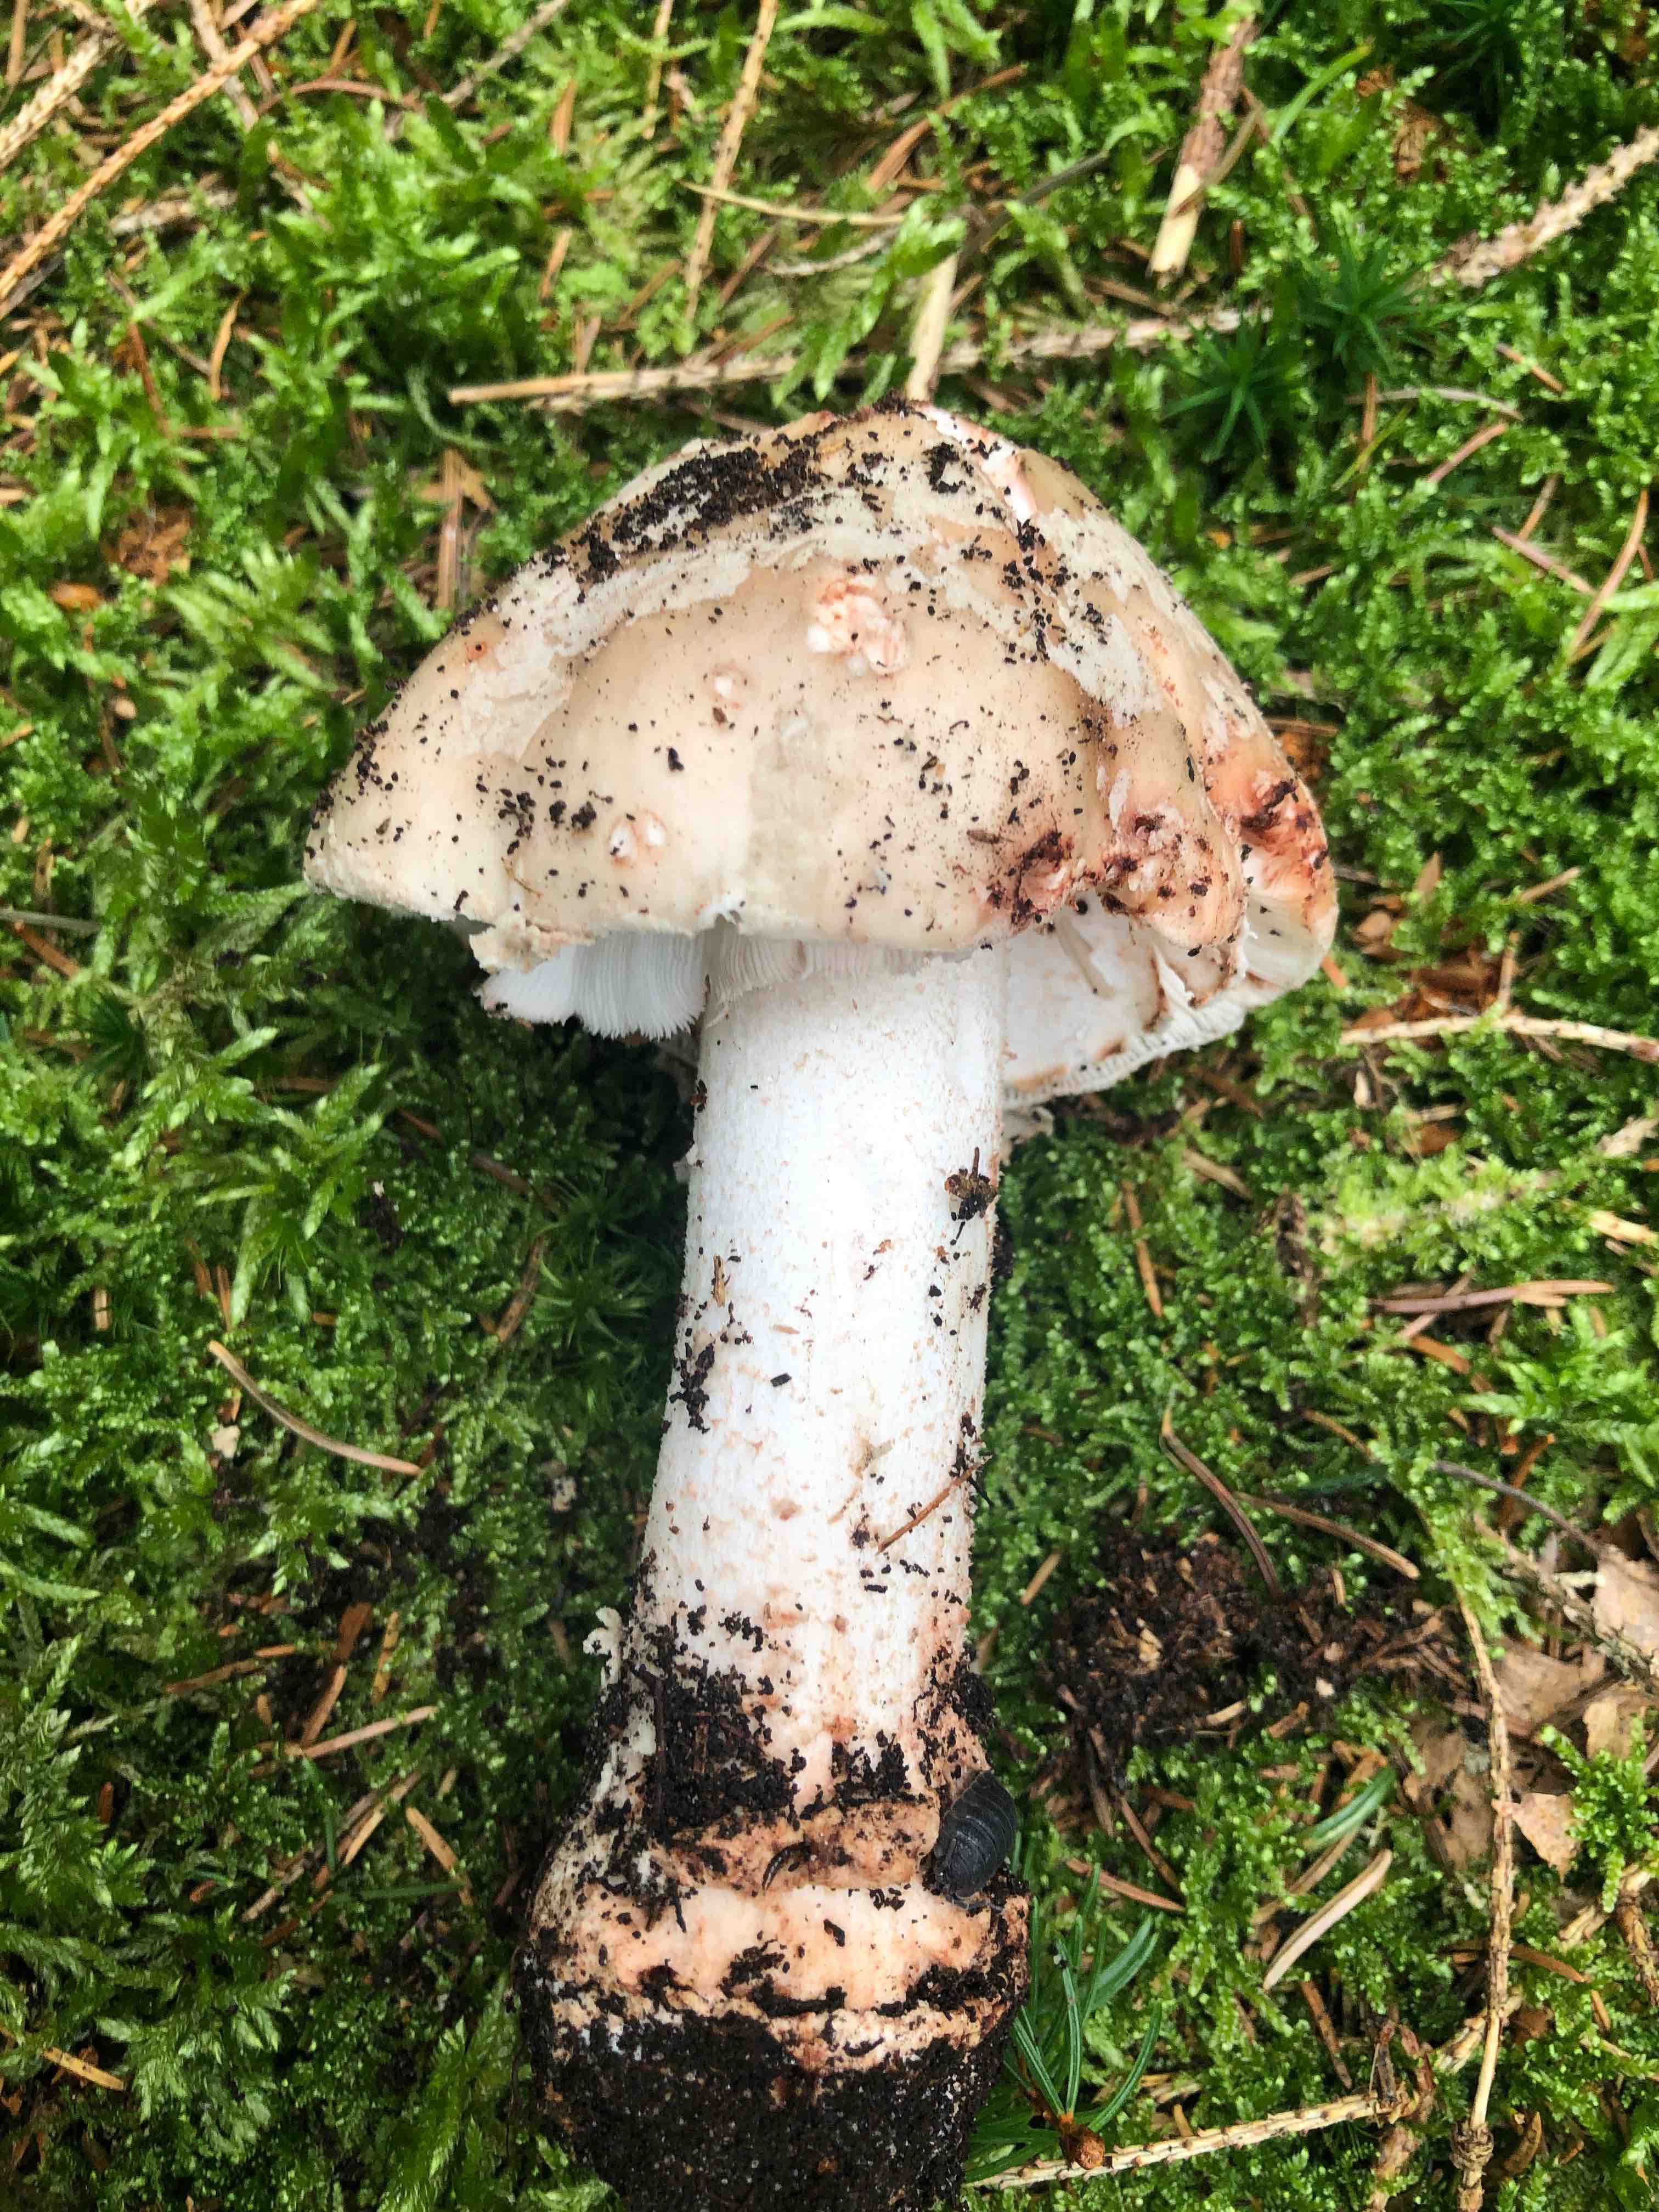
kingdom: Fungi
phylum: Basidiomycota
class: Agaricomycetes
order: Agaricales
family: Amanitaceae
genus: Amanita
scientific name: Amanita rubescens
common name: rødmende fluesvamp
